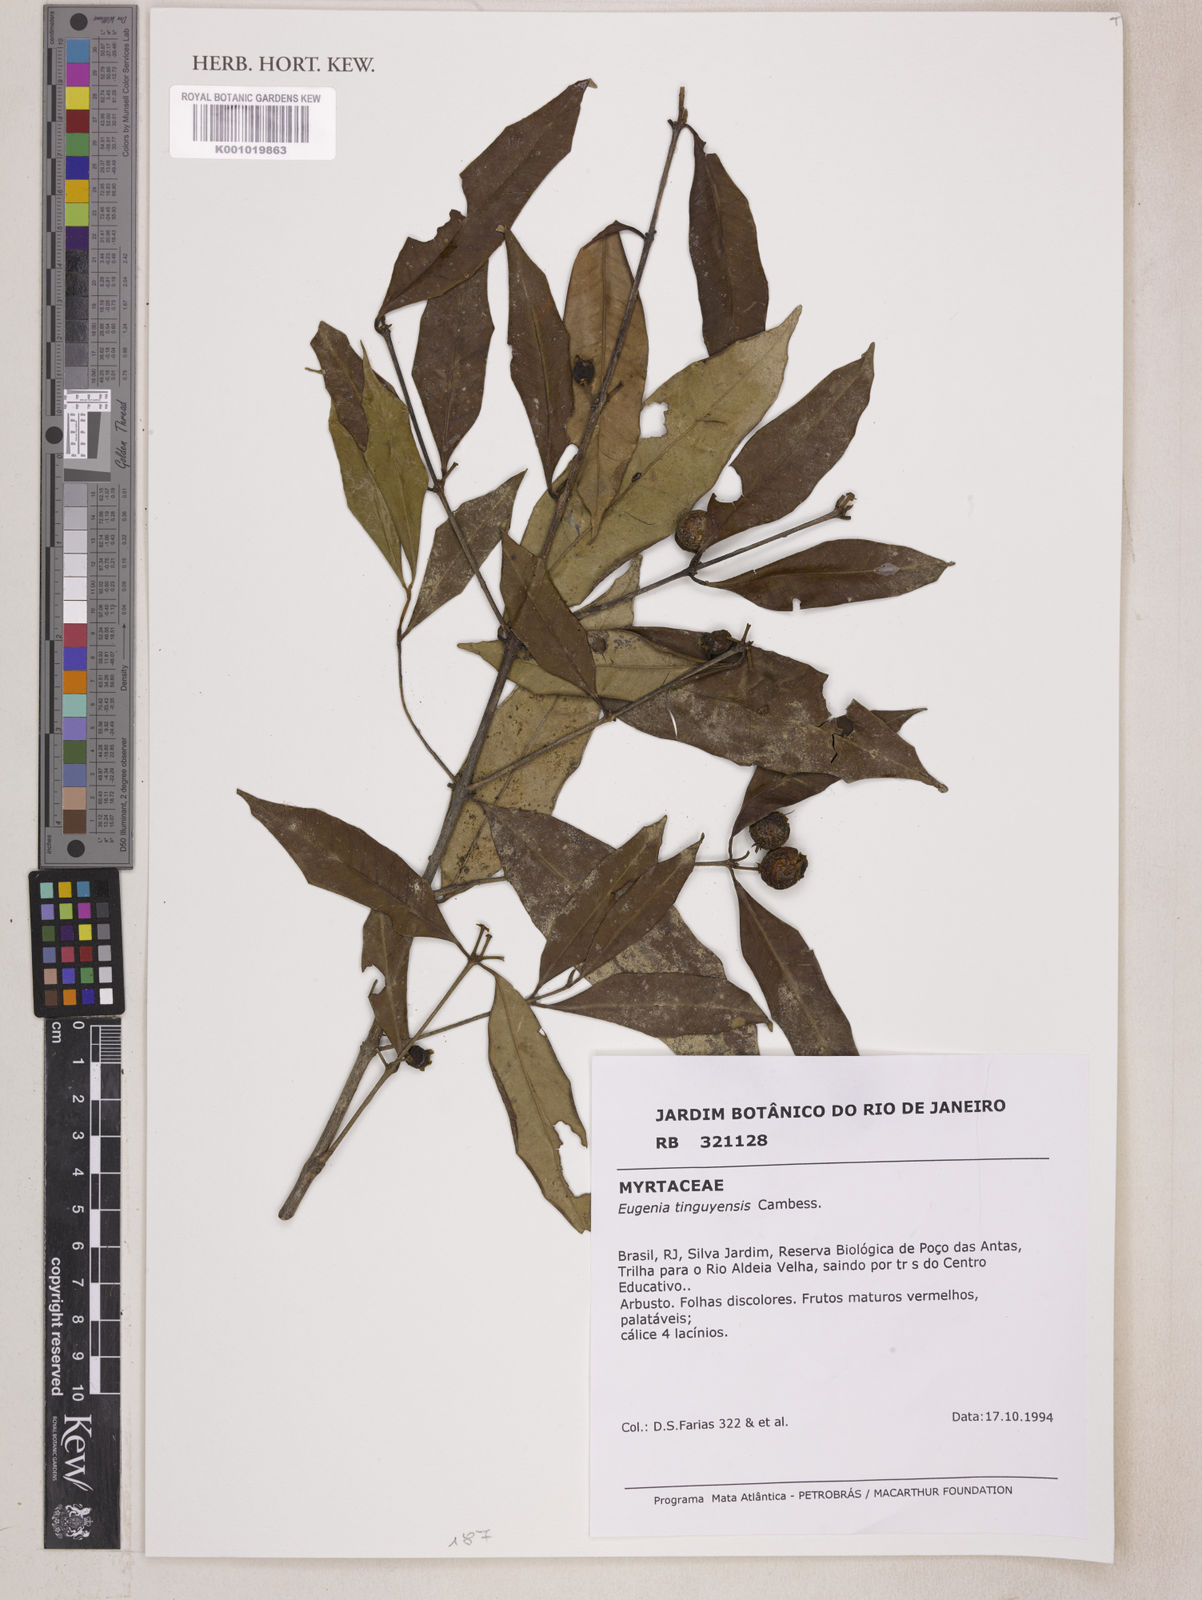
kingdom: Plantae
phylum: Tracheophyta
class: Magnoliopsida
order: Myrtales
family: Myrtaceae
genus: Eugenia
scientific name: Eugenia pisiformis
